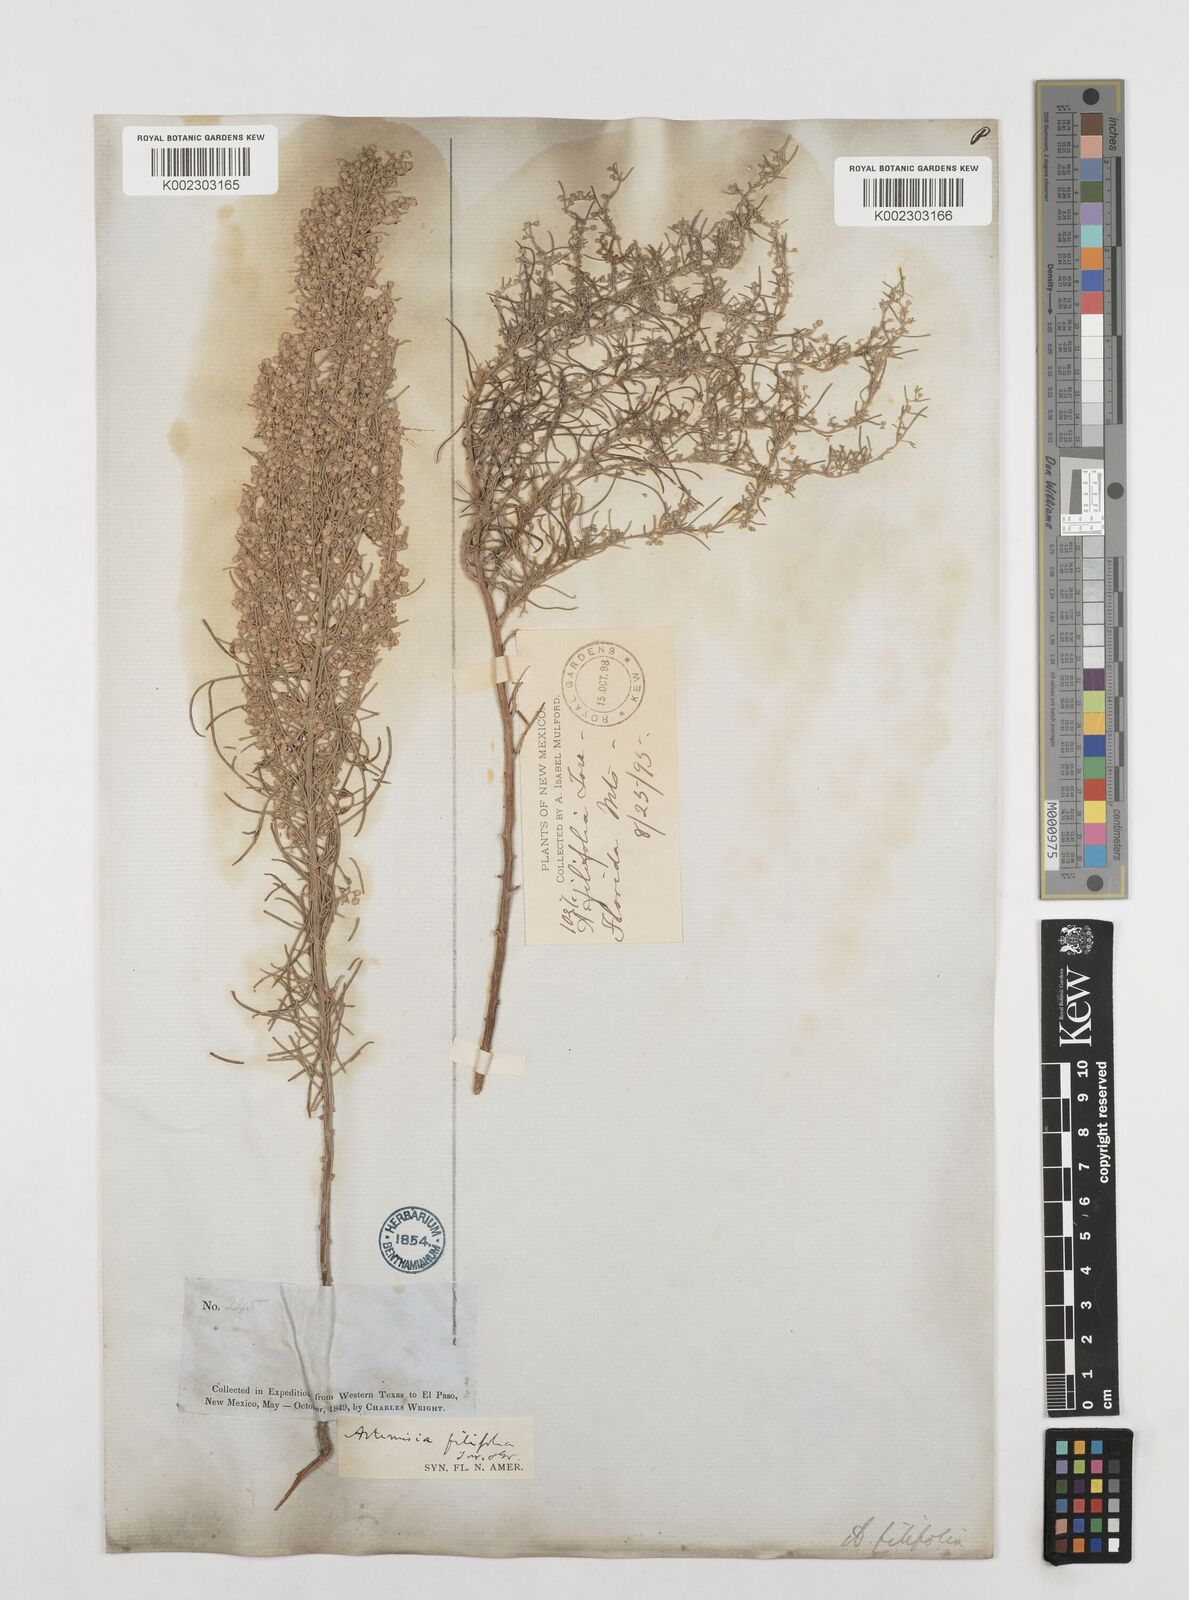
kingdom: Plantae
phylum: Tracheophyta
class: Magnoliopsida
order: Asterales
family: Asteraceae
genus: Artemisia
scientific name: Artemisia filifolia
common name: Sand-sage
